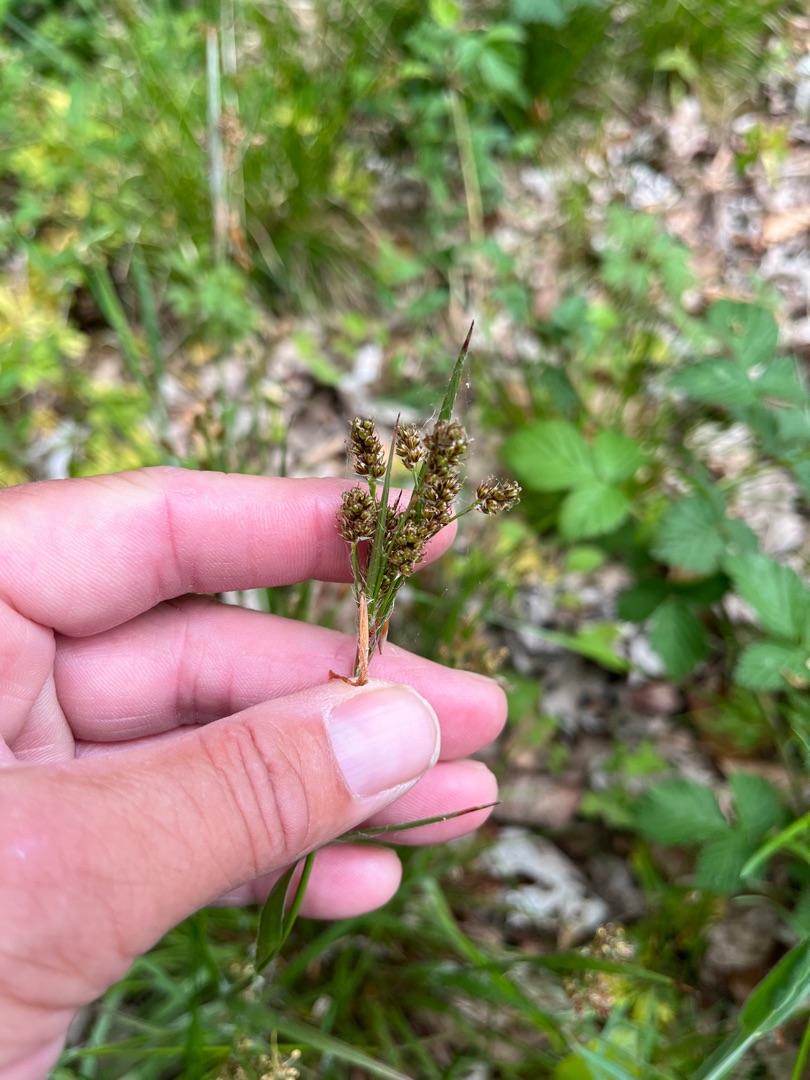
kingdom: Plantae
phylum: Tracheophyta
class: Liliopsida
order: Poales
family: Juncaceae
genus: Luzula
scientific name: Luzula multiflora
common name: Mangeblomstret frytle
